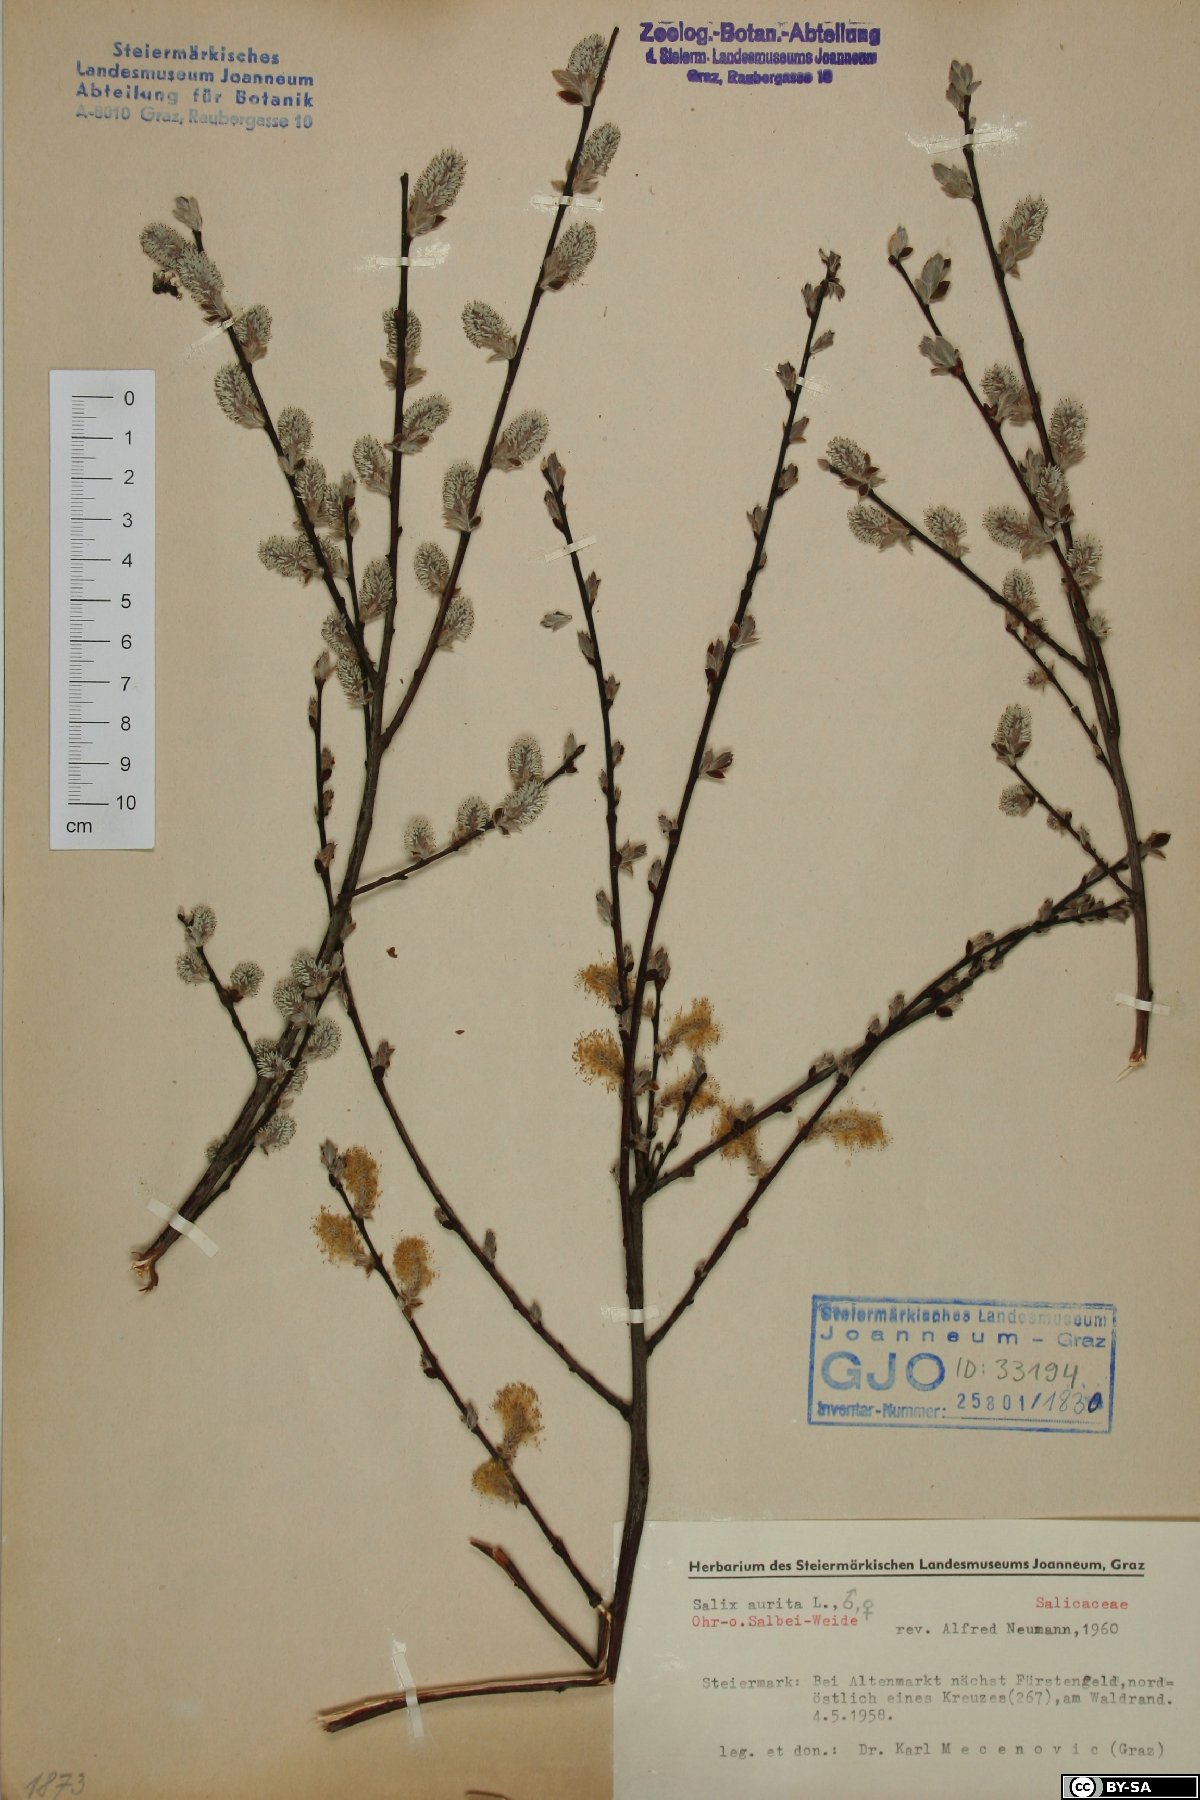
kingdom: Plantae
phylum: Tracheophyta
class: Magnoliopsida
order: Malpighiales
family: Salicaceae
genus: Salix
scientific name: Salix aurita
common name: Eared willow
